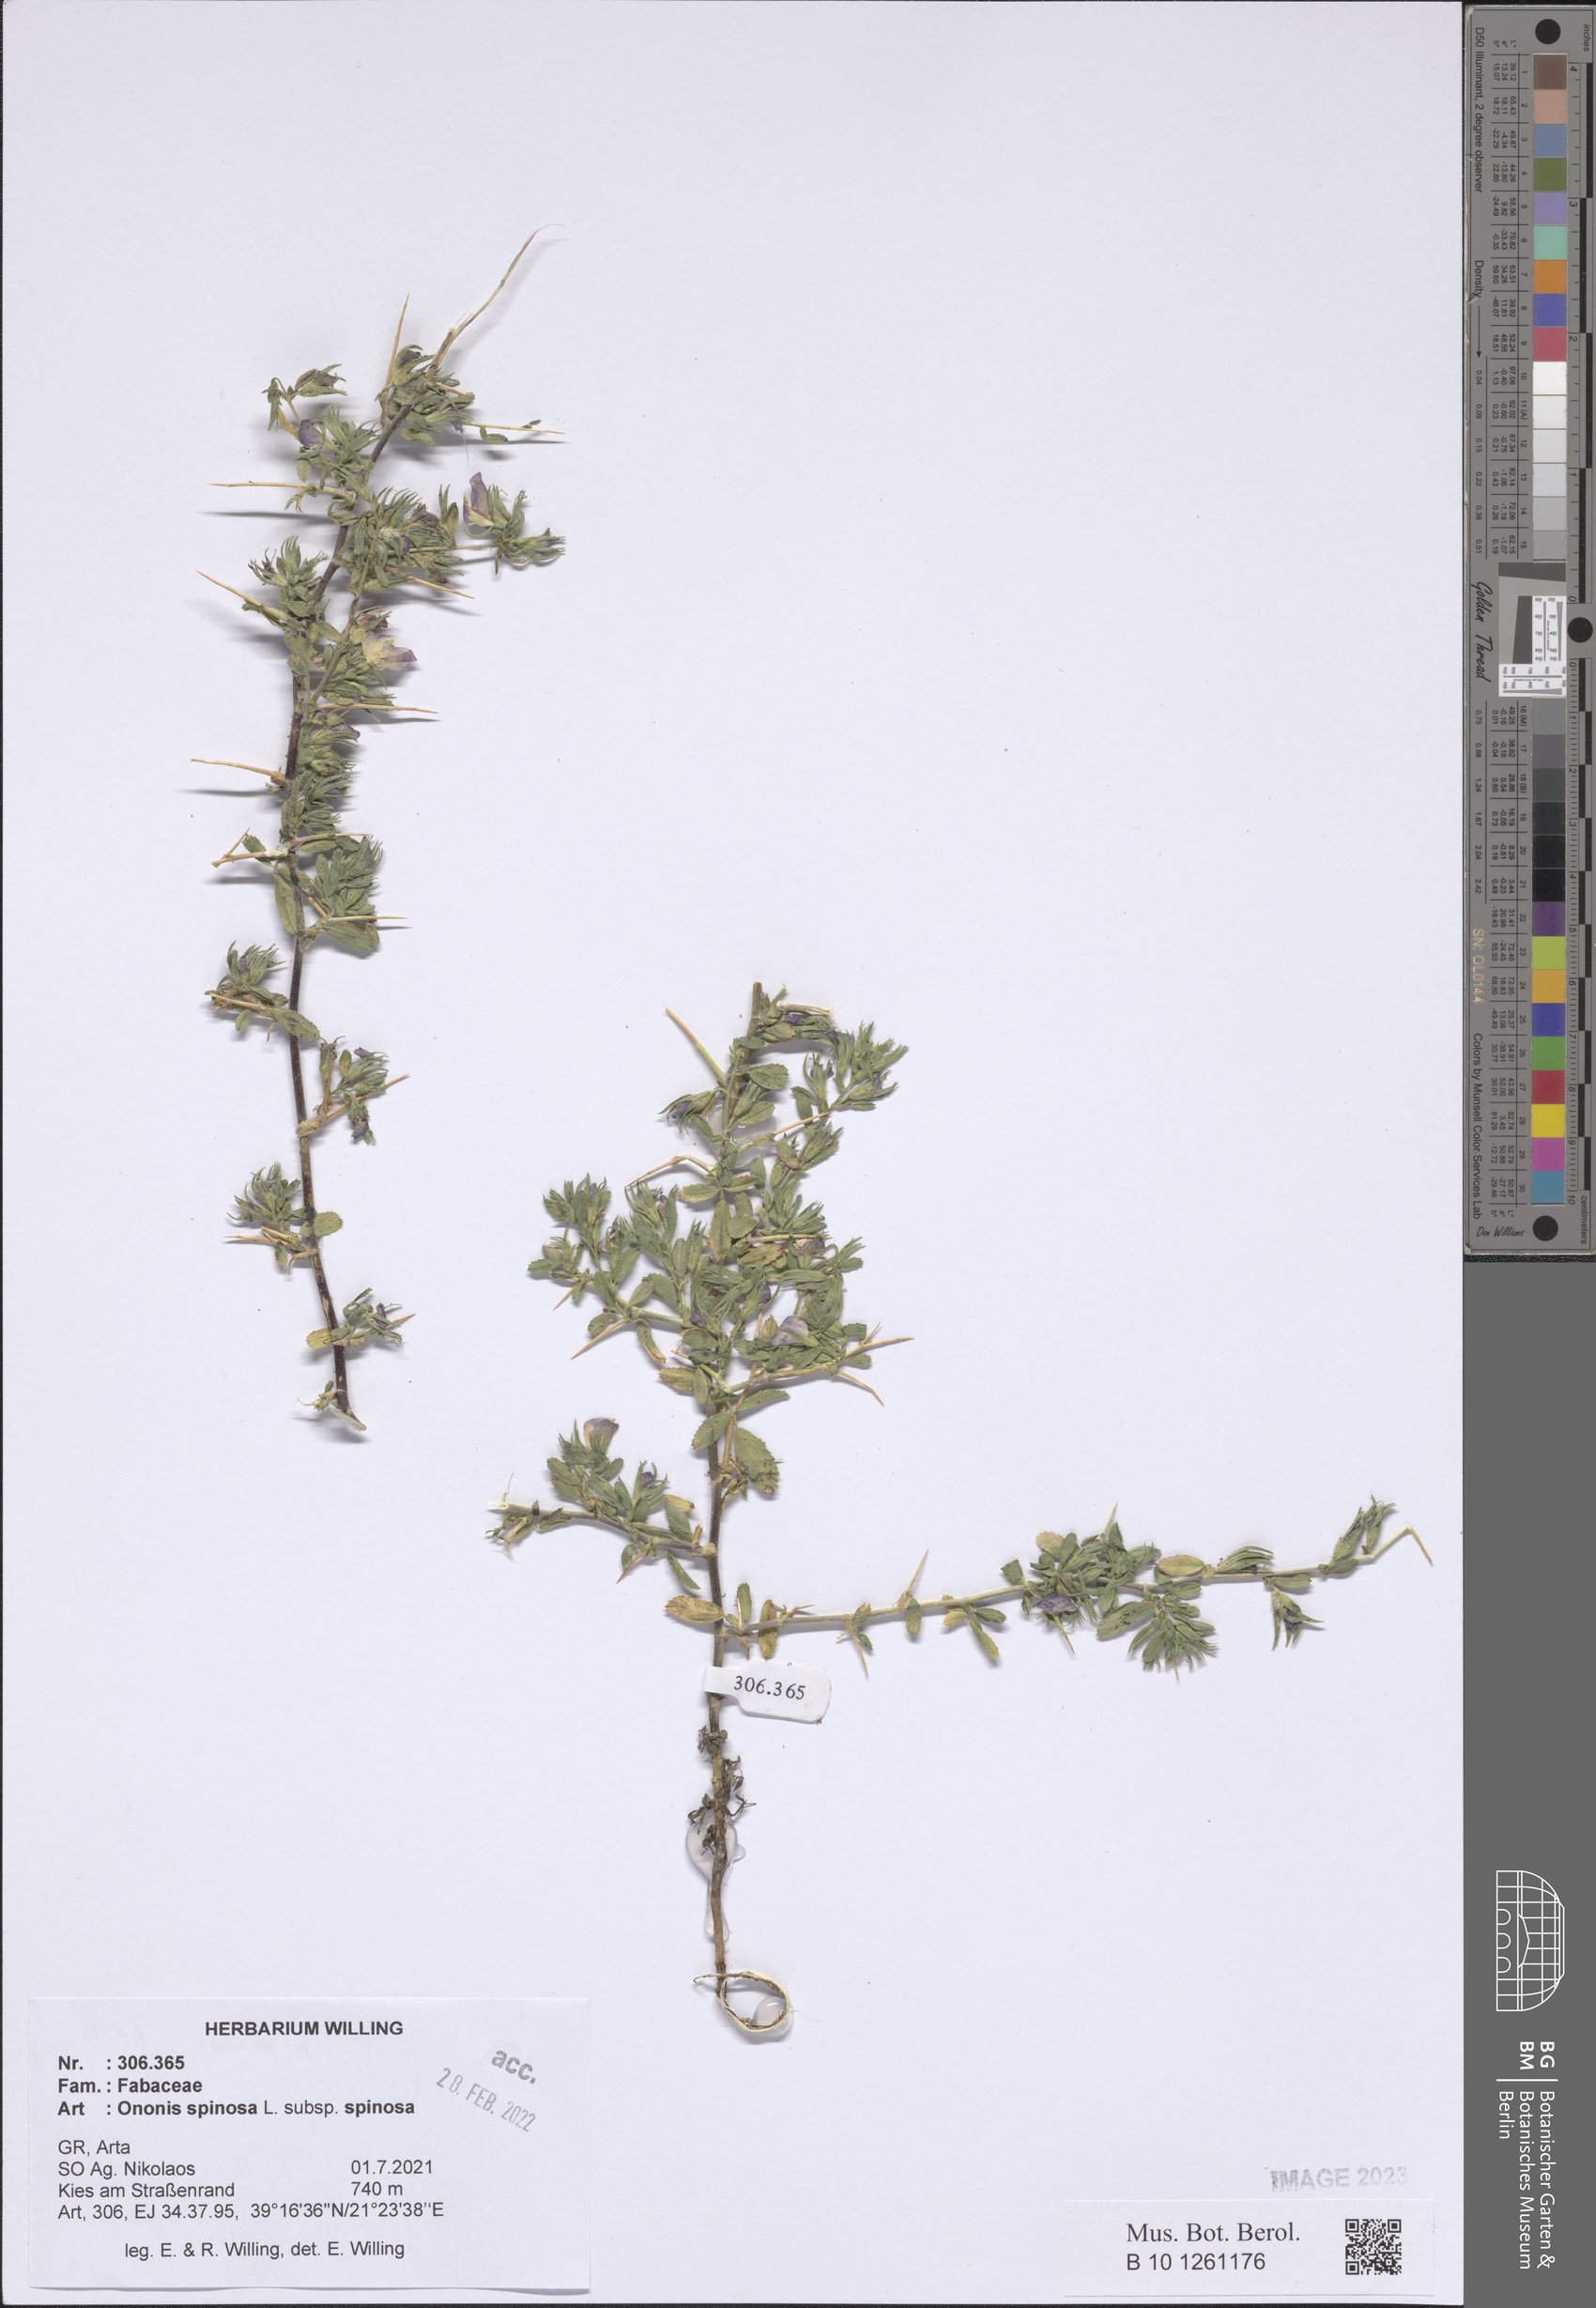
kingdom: Plantae
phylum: Tracheophyta
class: Magnoliopsida
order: Fabales
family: Fabaceae
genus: Ononis
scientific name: Ononis spinosa
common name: Spiny restharrow
